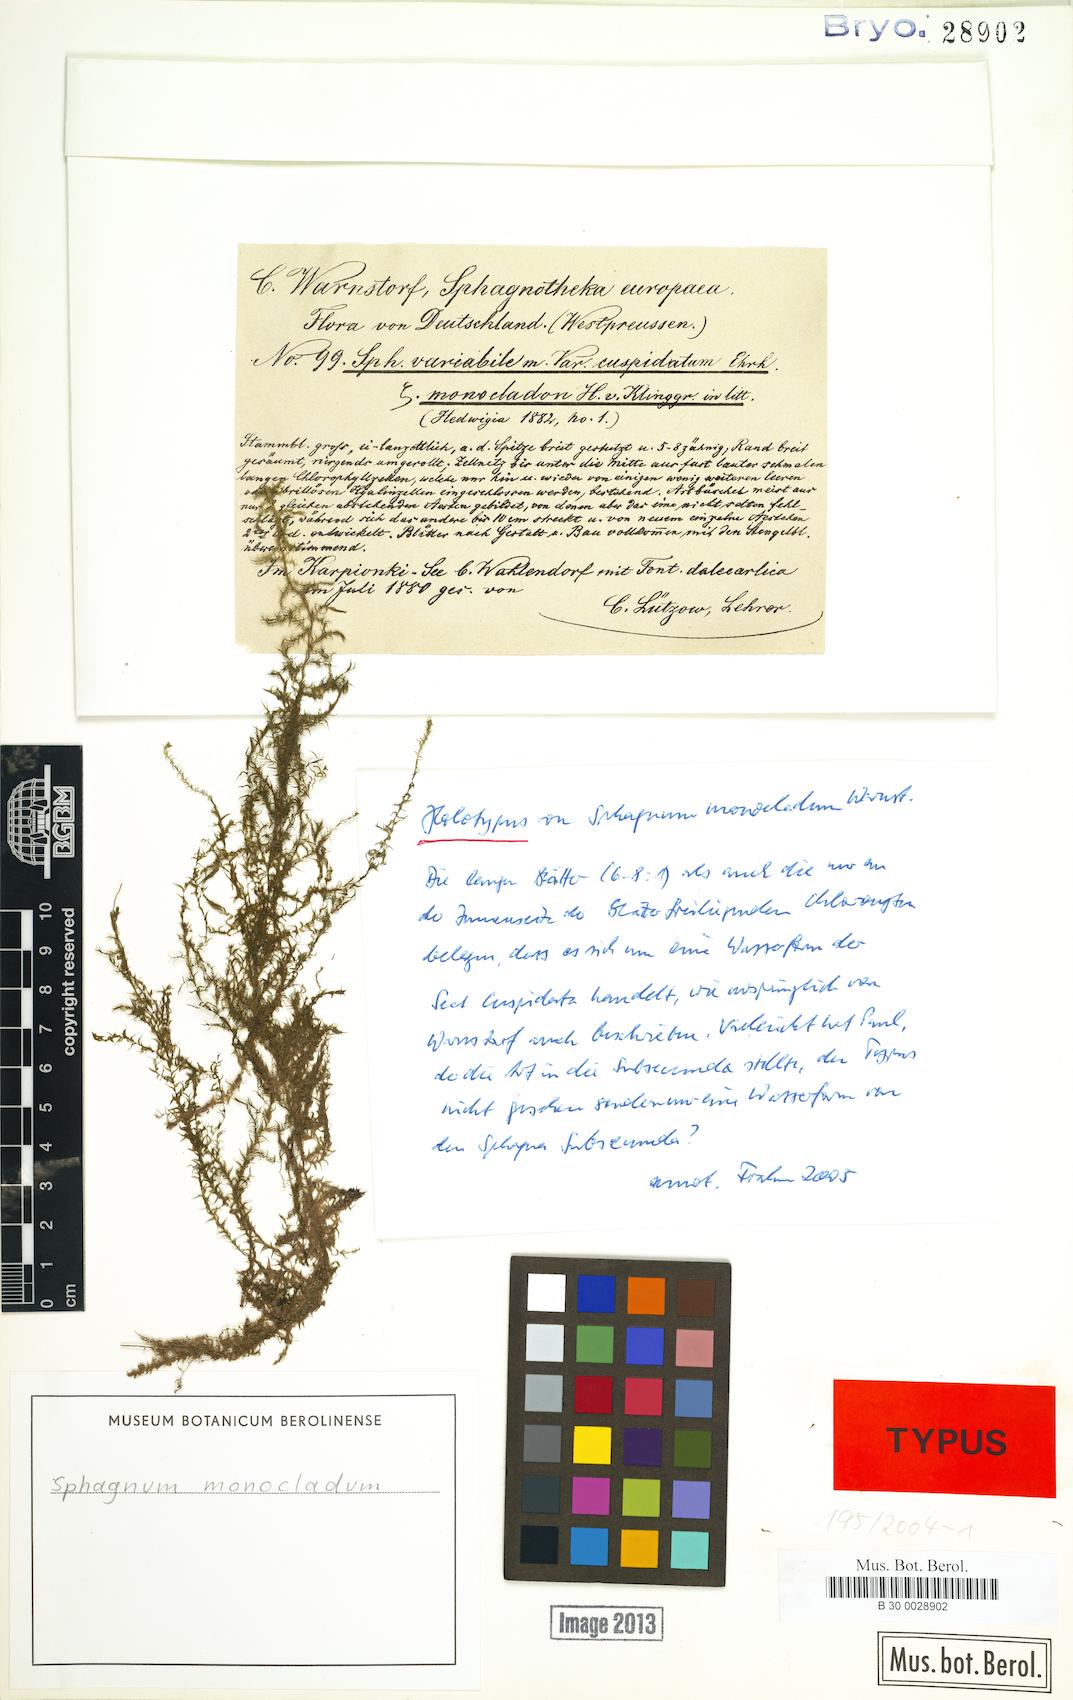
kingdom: Plantae
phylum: Bryophyta
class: Sphagnopsida
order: Sphagnales
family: Sphagnaceae
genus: Sphagnum
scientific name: Sphagnum cuspidatum
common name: Feathery peat moss
